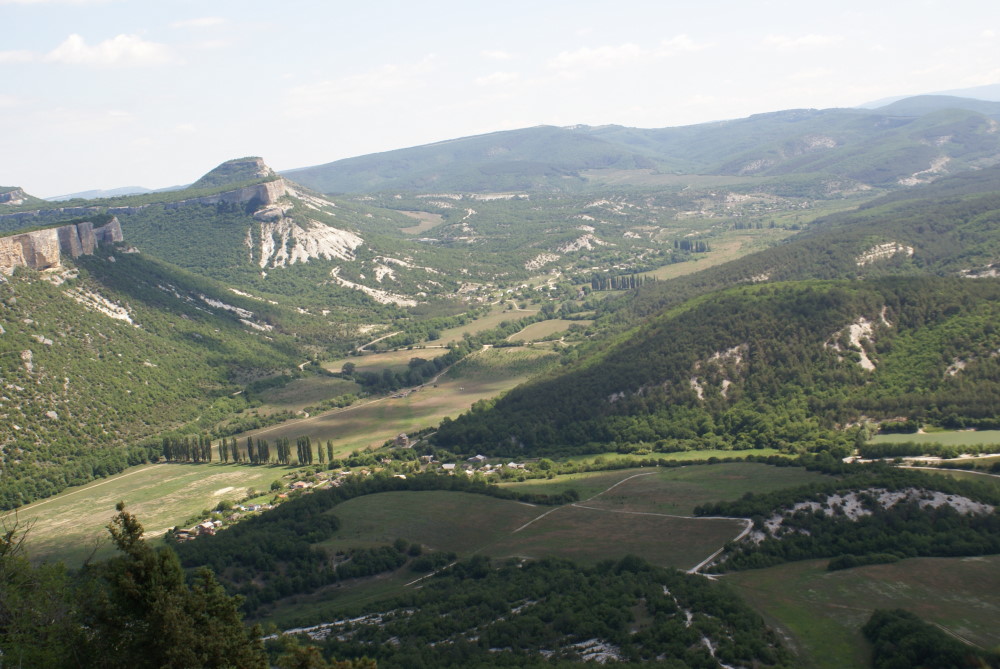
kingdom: Plantae
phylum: Tracheophyta
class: Magnoliopsida
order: Malpighiales
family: Salicaceae
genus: Populus
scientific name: Populus nigra
